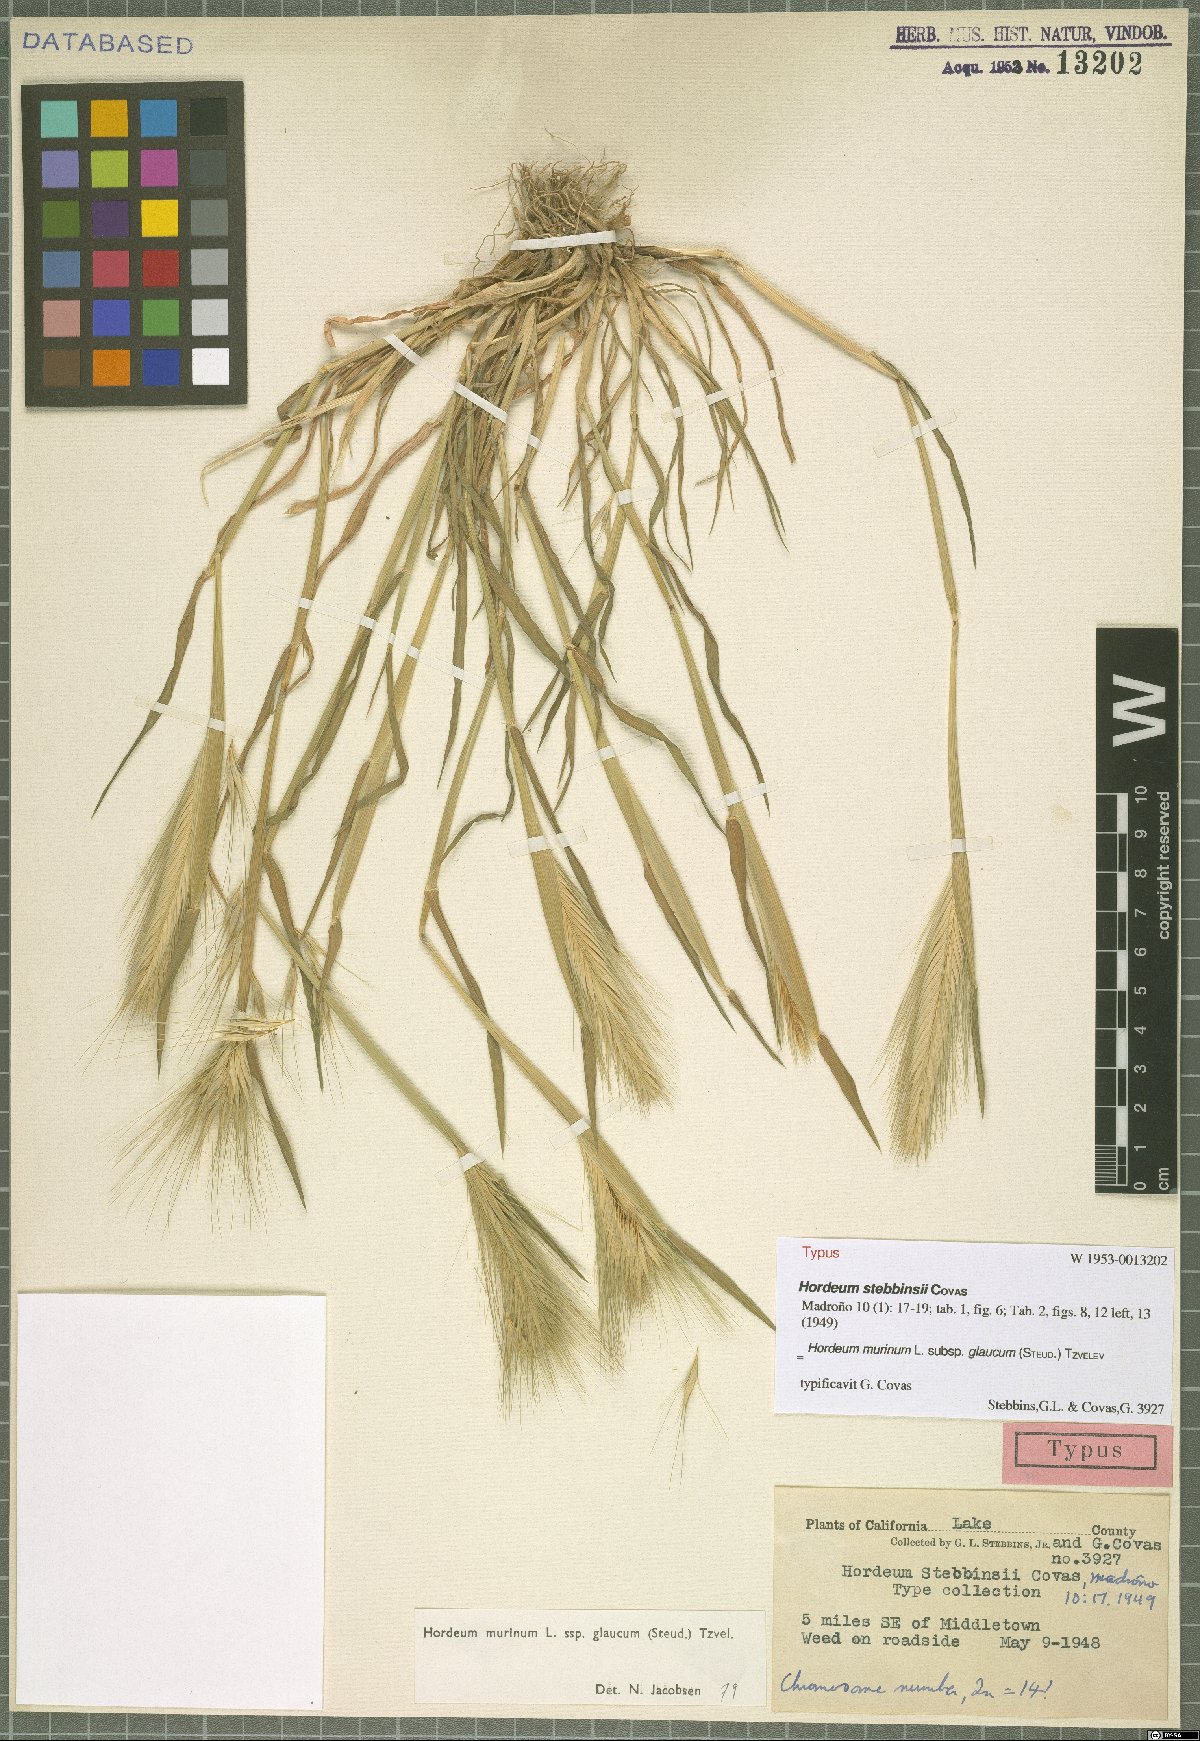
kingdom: Plantae
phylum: Tracheophyta
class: Liliopsida
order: Poales
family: Poaceae
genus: Hordeum
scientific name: Hordeum murinum
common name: Wall barley
